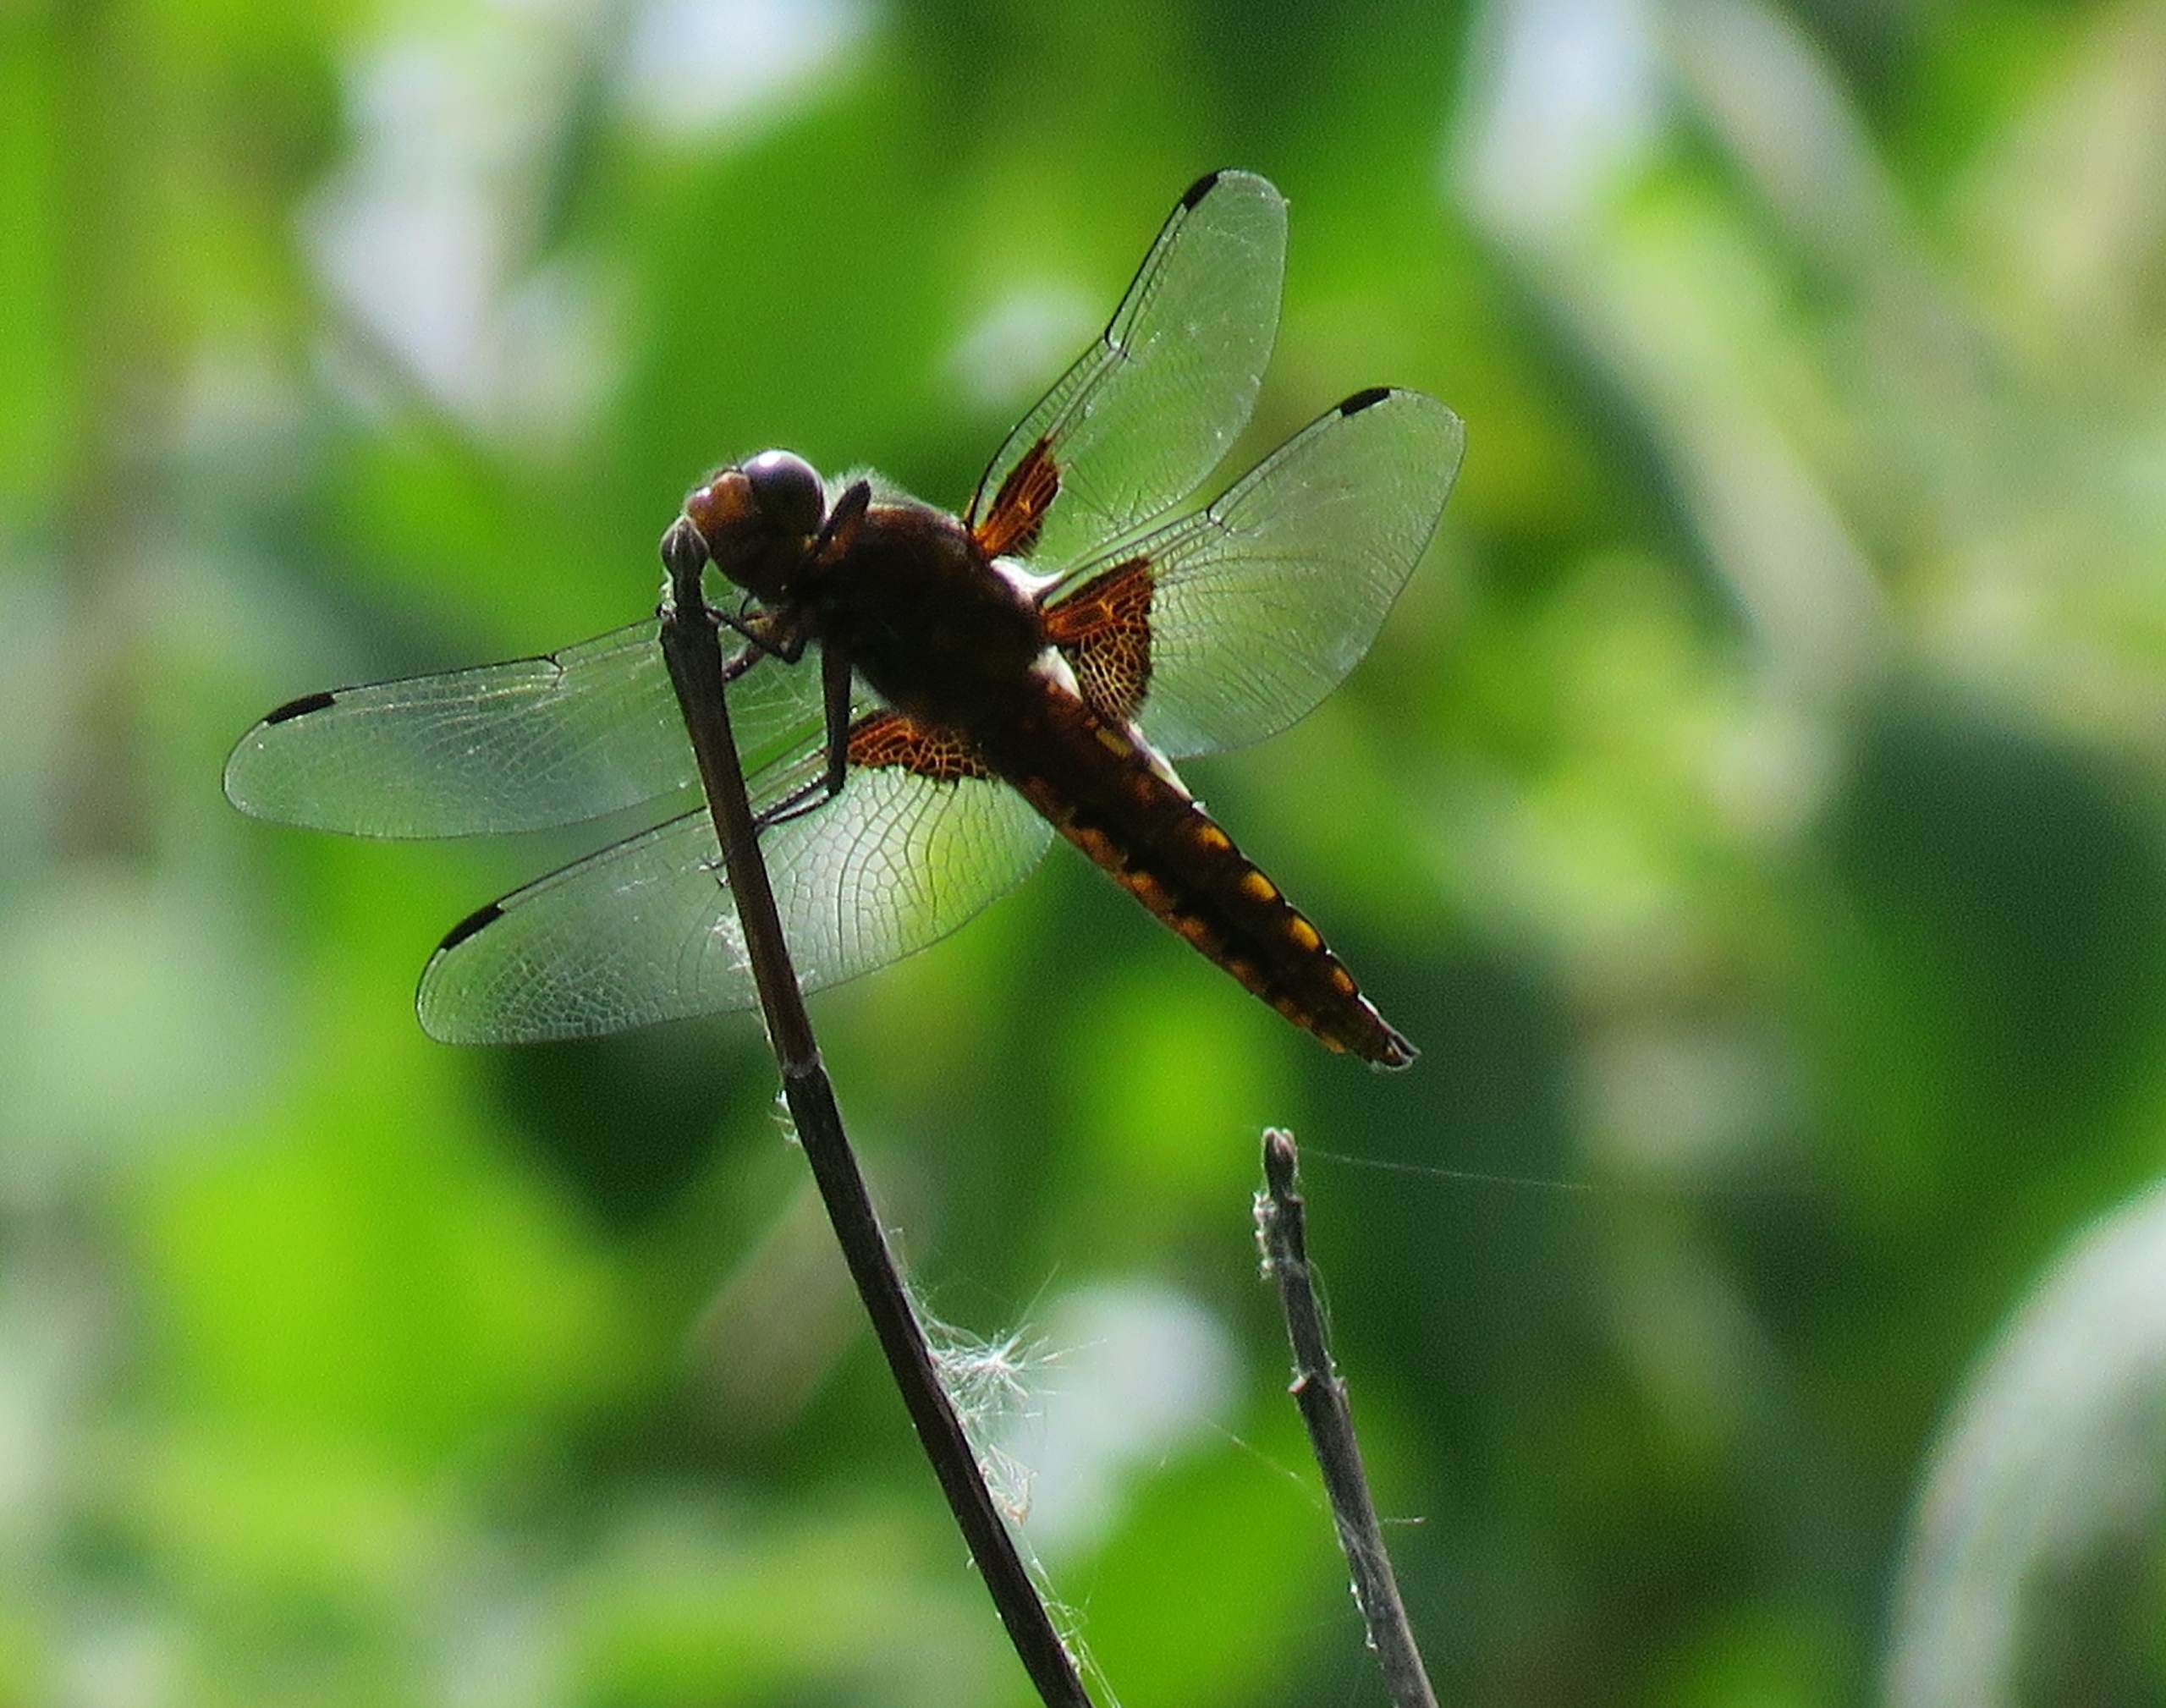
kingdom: Animalia
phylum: Arthropoda
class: Insecta
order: Odonata
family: Libellulidae
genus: Libellula
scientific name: Libellula depressa
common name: Blå libel
